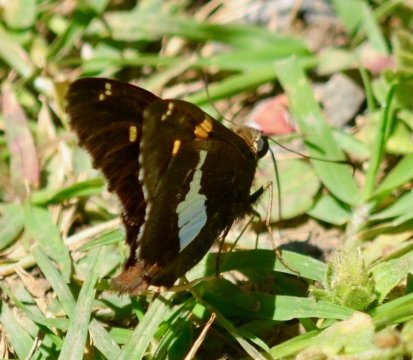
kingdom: Animalia
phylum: Arthropoda
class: Insecta
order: Lepidoptera
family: Hesperiidae
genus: Epargyreus
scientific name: Epargyreus clarus
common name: Silver-spotted Skipper
